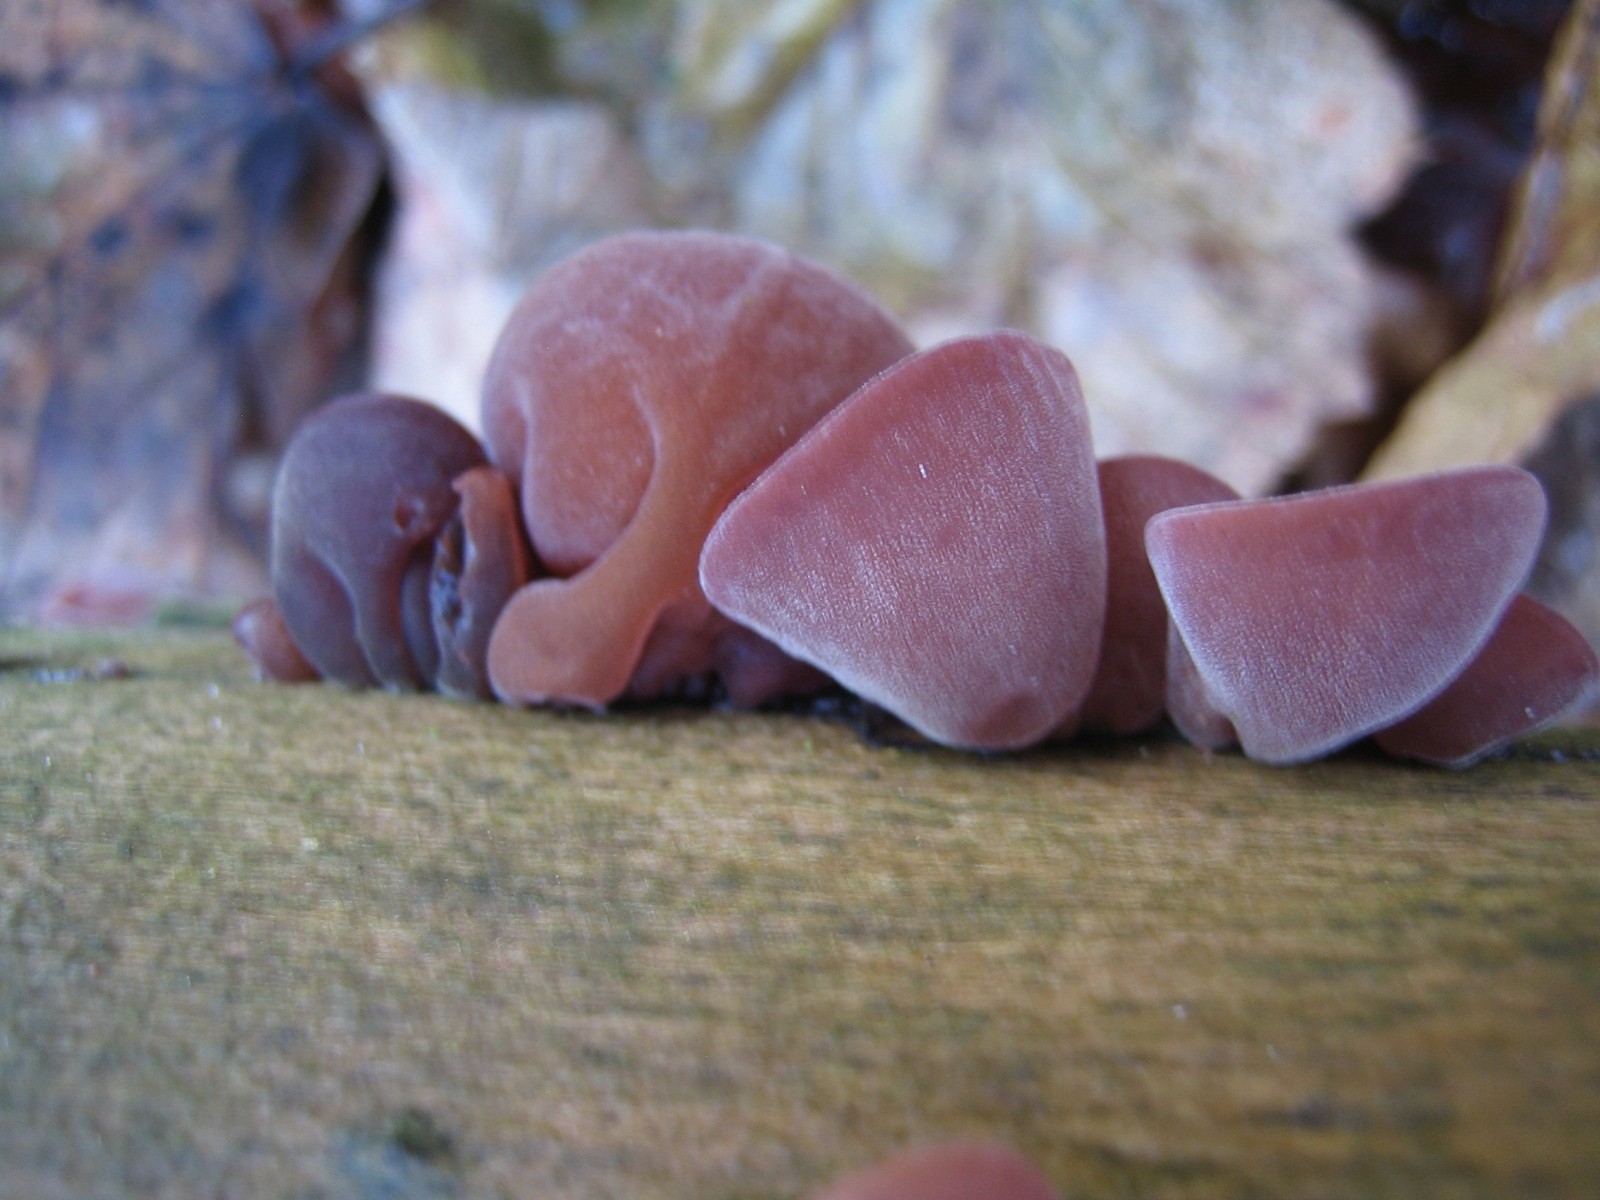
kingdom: Fungi
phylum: Basidiomycota
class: Agaricomycetes
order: Auriculariales
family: Auriculariaceae
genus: Auricularia
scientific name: Auricularia auricula-judae
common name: almindelig judasøre
